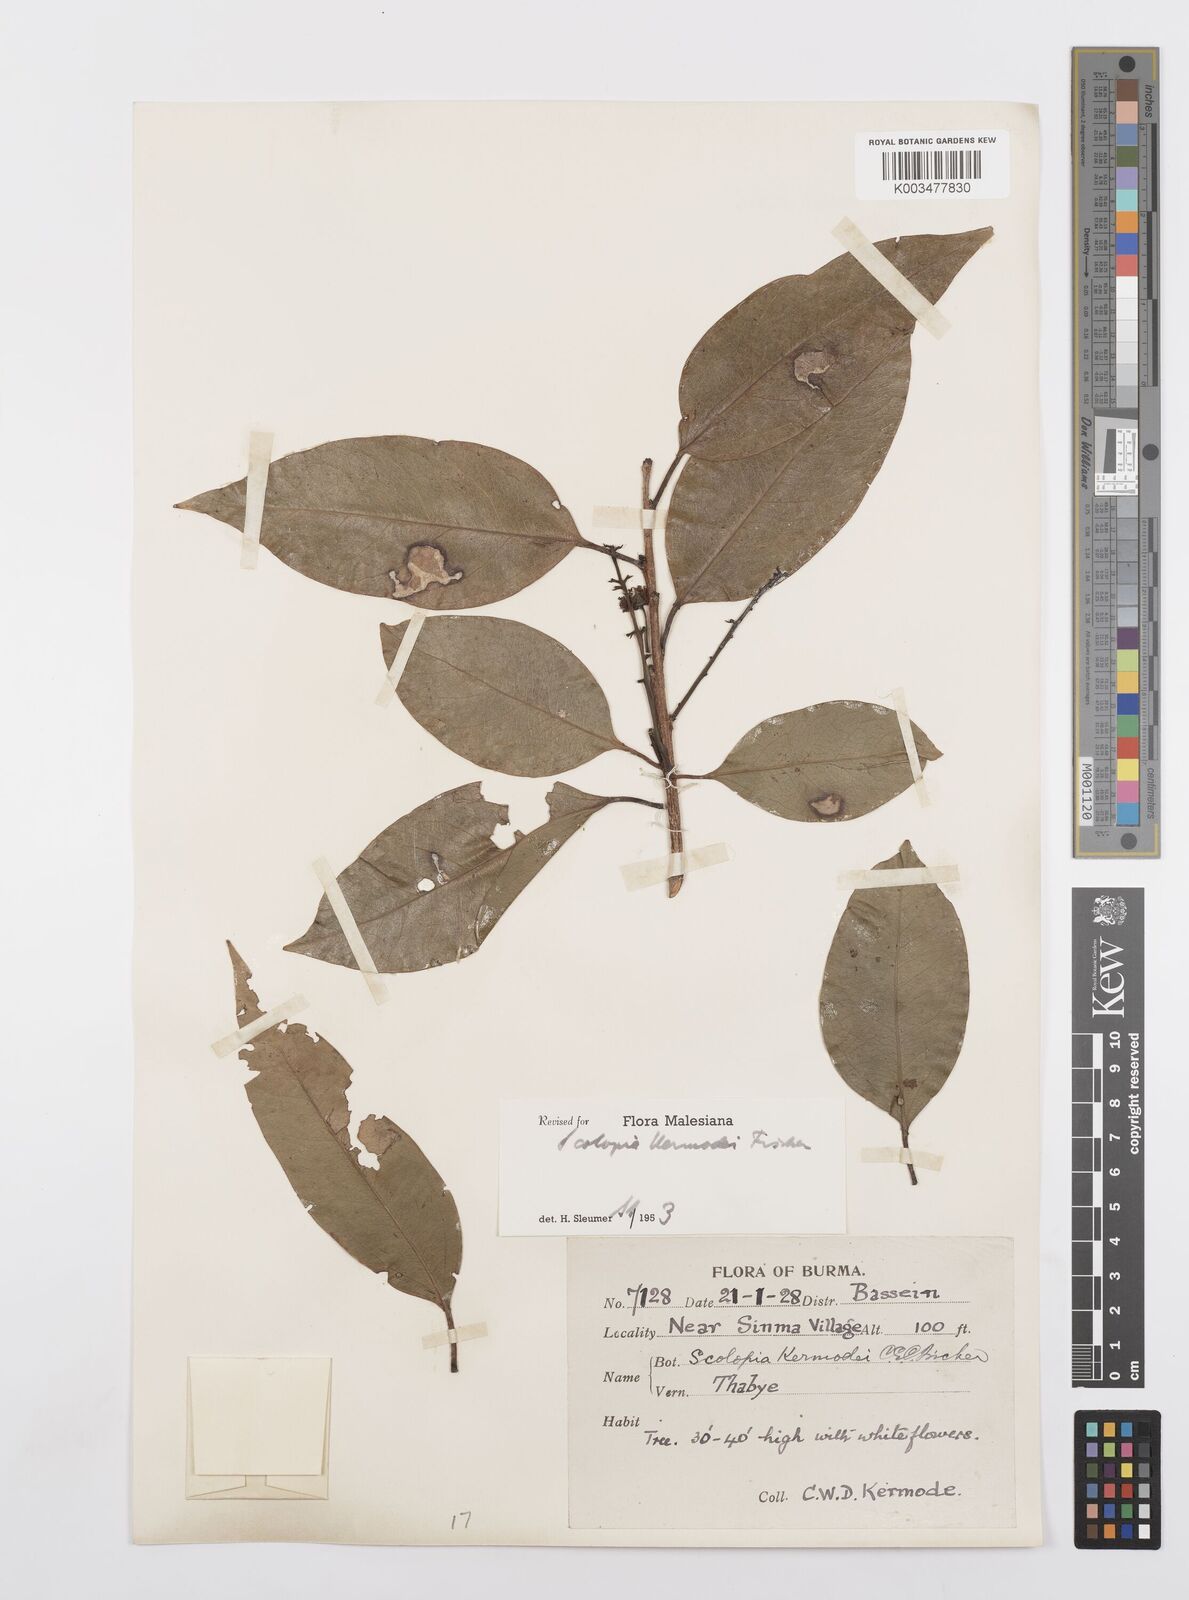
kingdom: Plantae
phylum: Tracheophyta
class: Magnoliopsida
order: Malpighiales
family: Salicaceae
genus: Scolopia
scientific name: Scolopia kermodei
